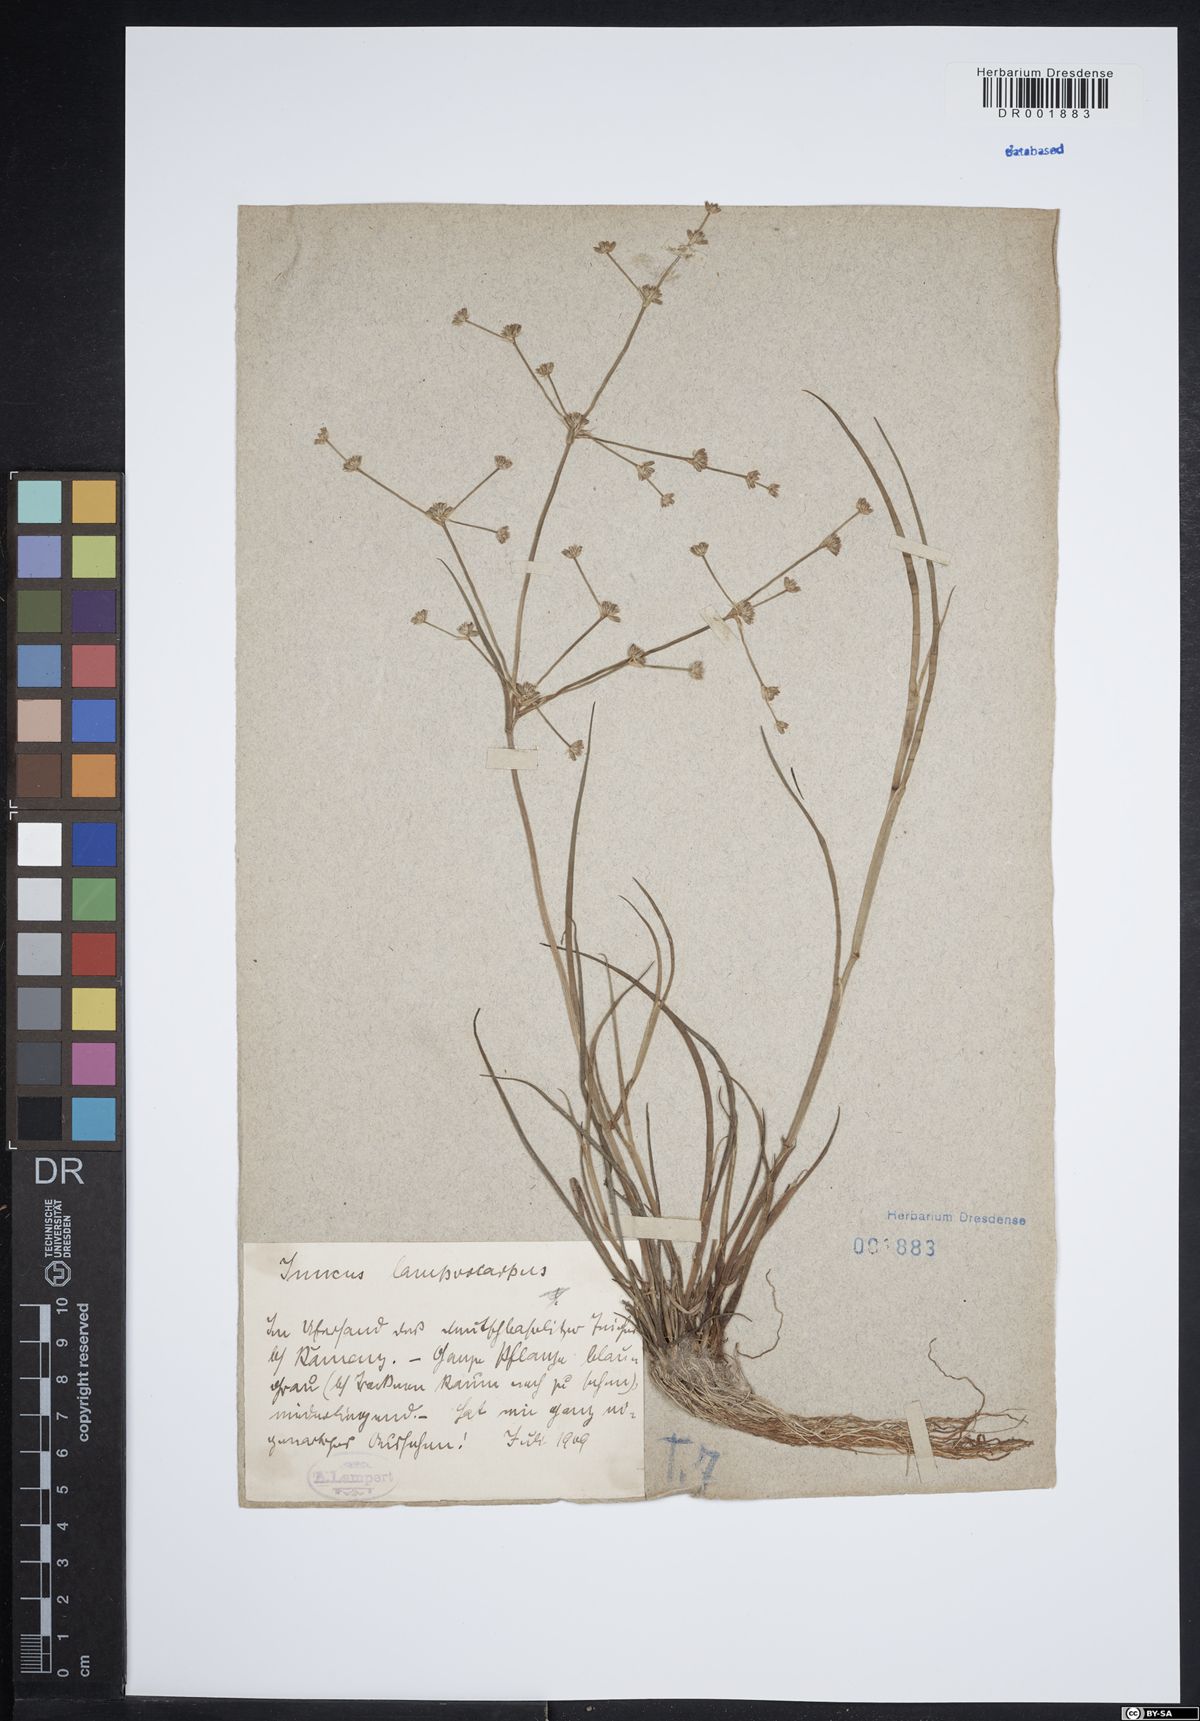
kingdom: Plantae
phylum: Tracheophyta
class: Liliopsida
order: Poales
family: Juncaceae
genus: Juncus
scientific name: Juncus articulatus
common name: Jointed rush
